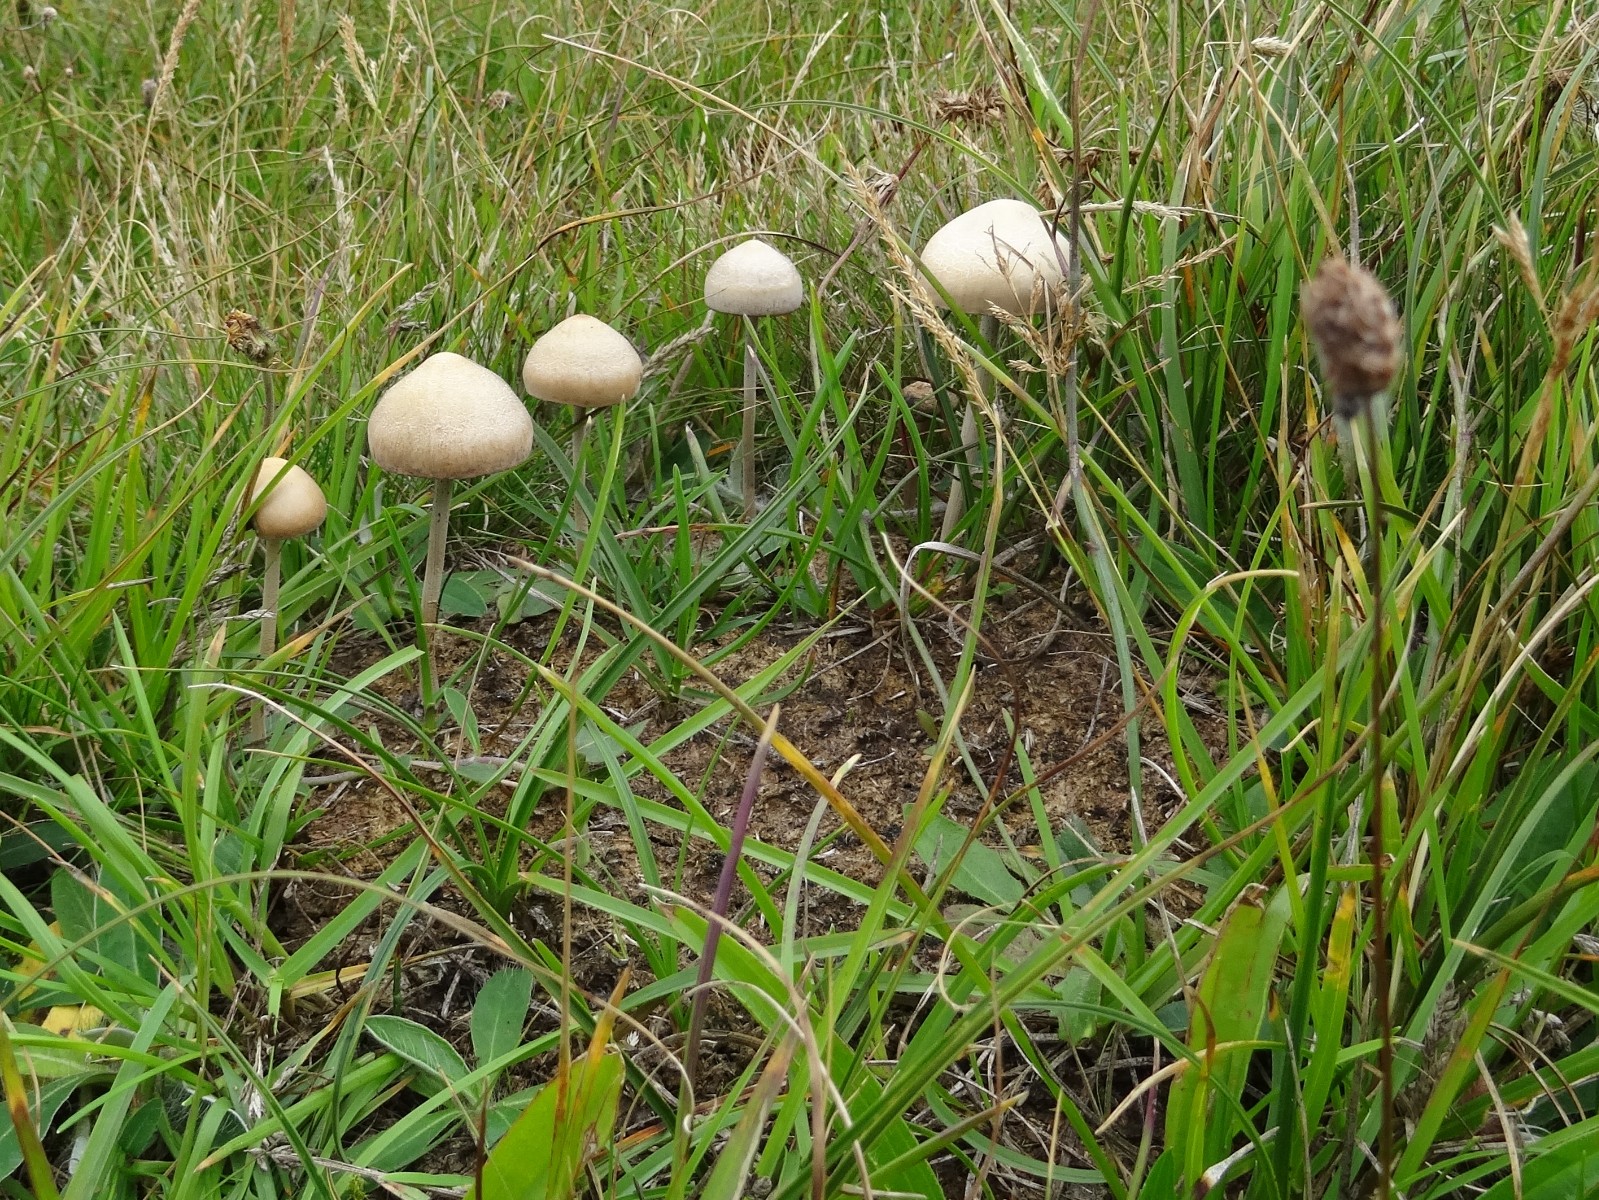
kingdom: Fungi
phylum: Basidiomycota
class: Agaricomycetes
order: Agaricales
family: Bolbitiaceae
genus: Panaeolus
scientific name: Panaeolus subfirmus
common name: fælled-glanshat
